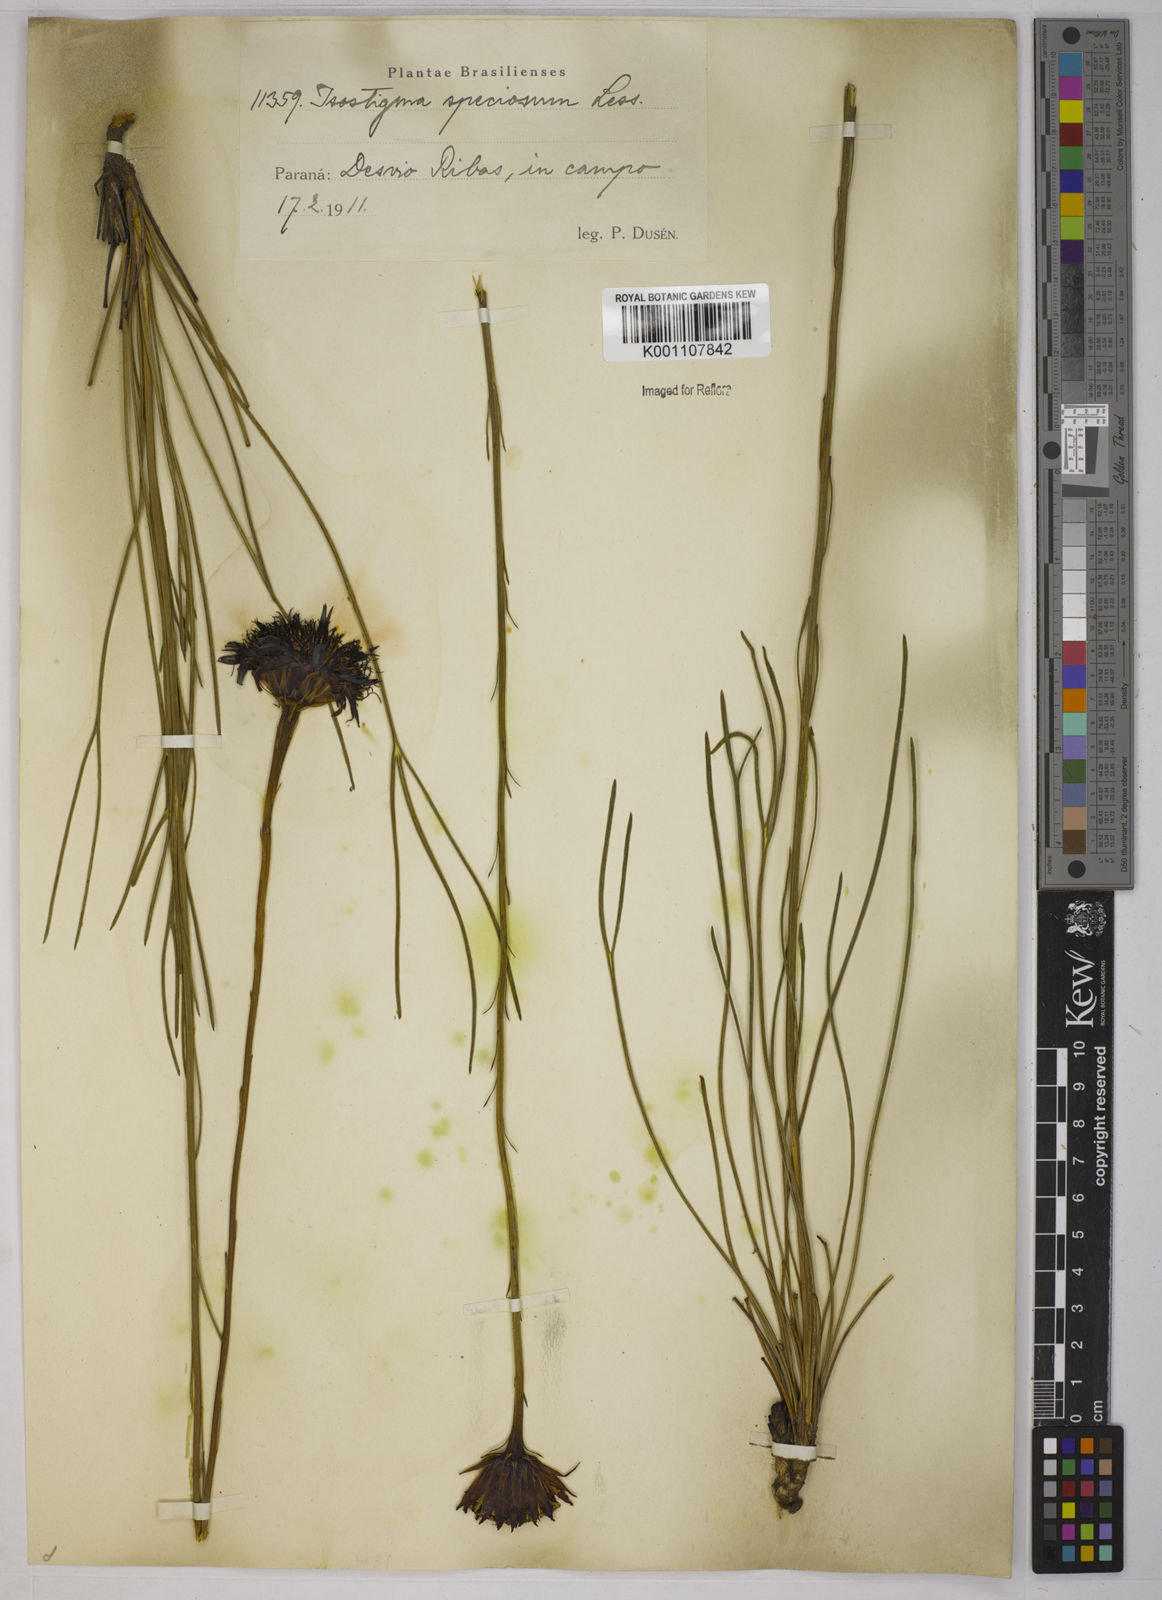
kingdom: Plantae
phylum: Tracheophyta
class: Magnoliopsida
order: Asterales
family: Asteraceae
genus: Isostigma
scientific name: Isostigma peucedanifolium
